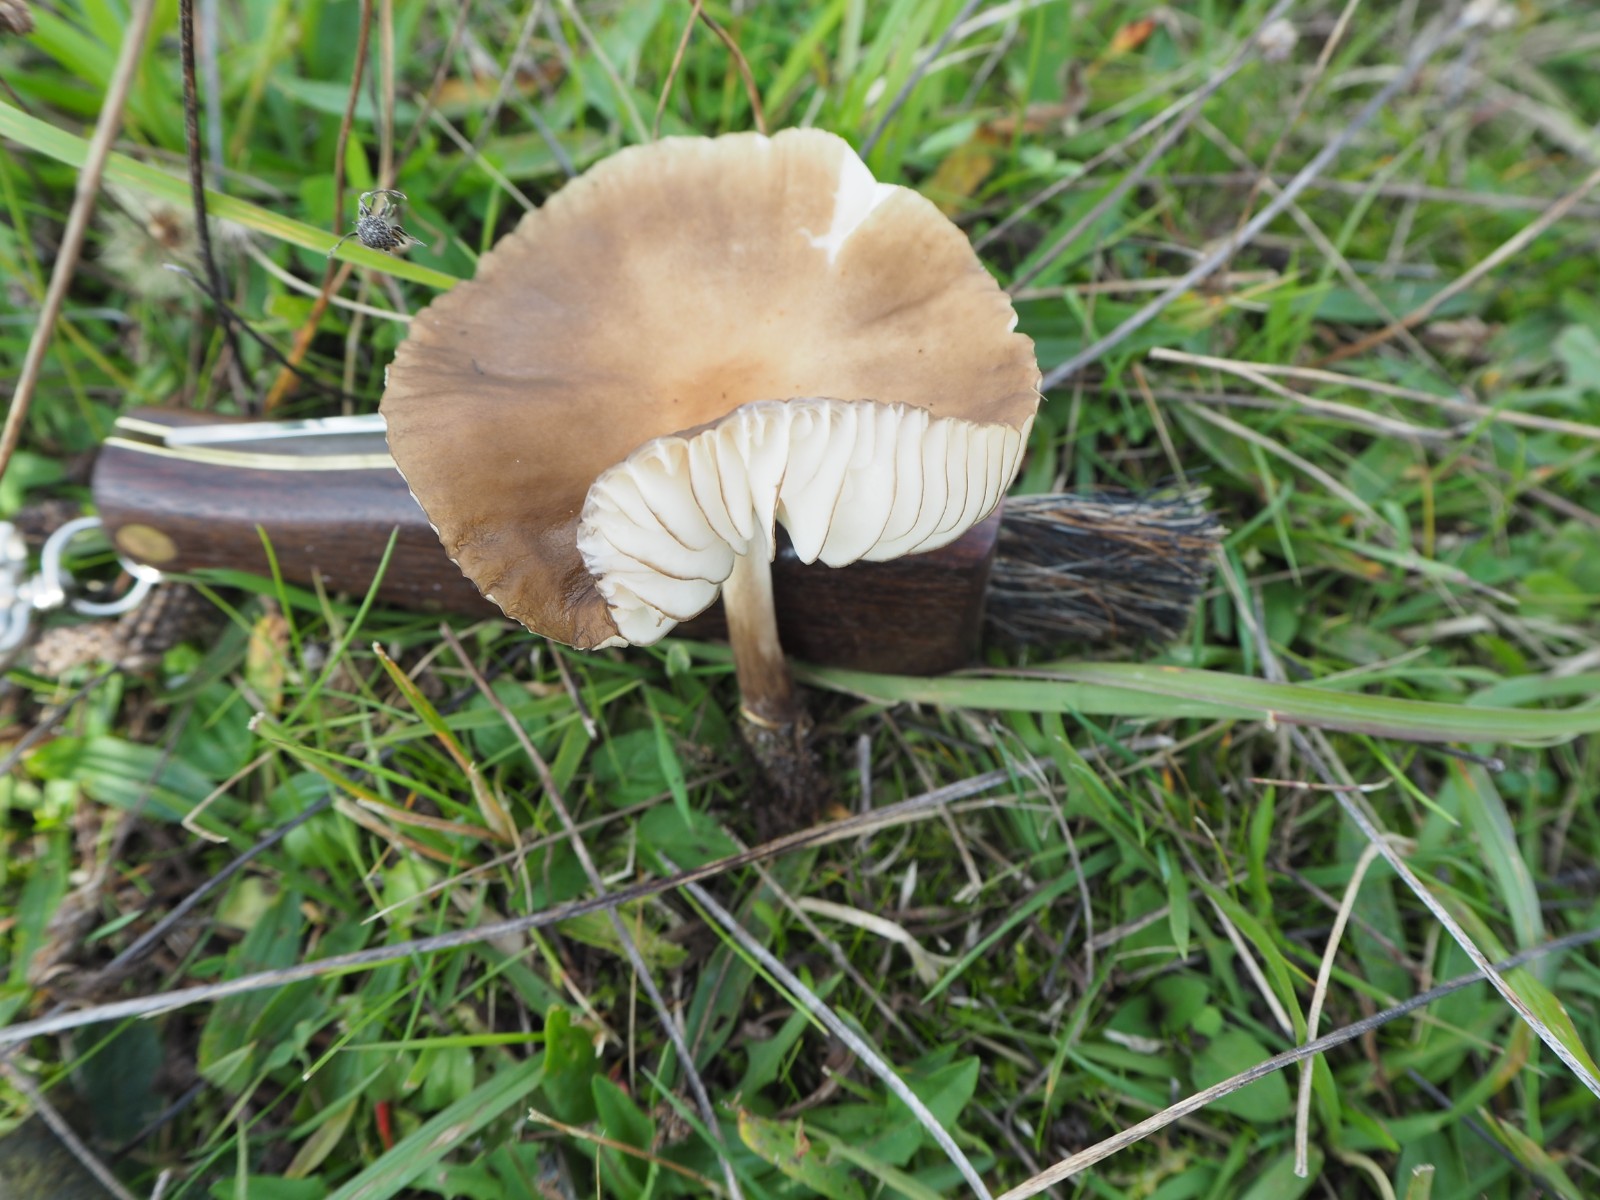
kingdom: Fungi
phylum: Basidiomycota
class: Agaricomycetes
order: Agaricales
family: Physalacriaceae
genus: Hymenopellis
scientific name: Hymenopellis radicata
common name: almindelig pælerodshat
